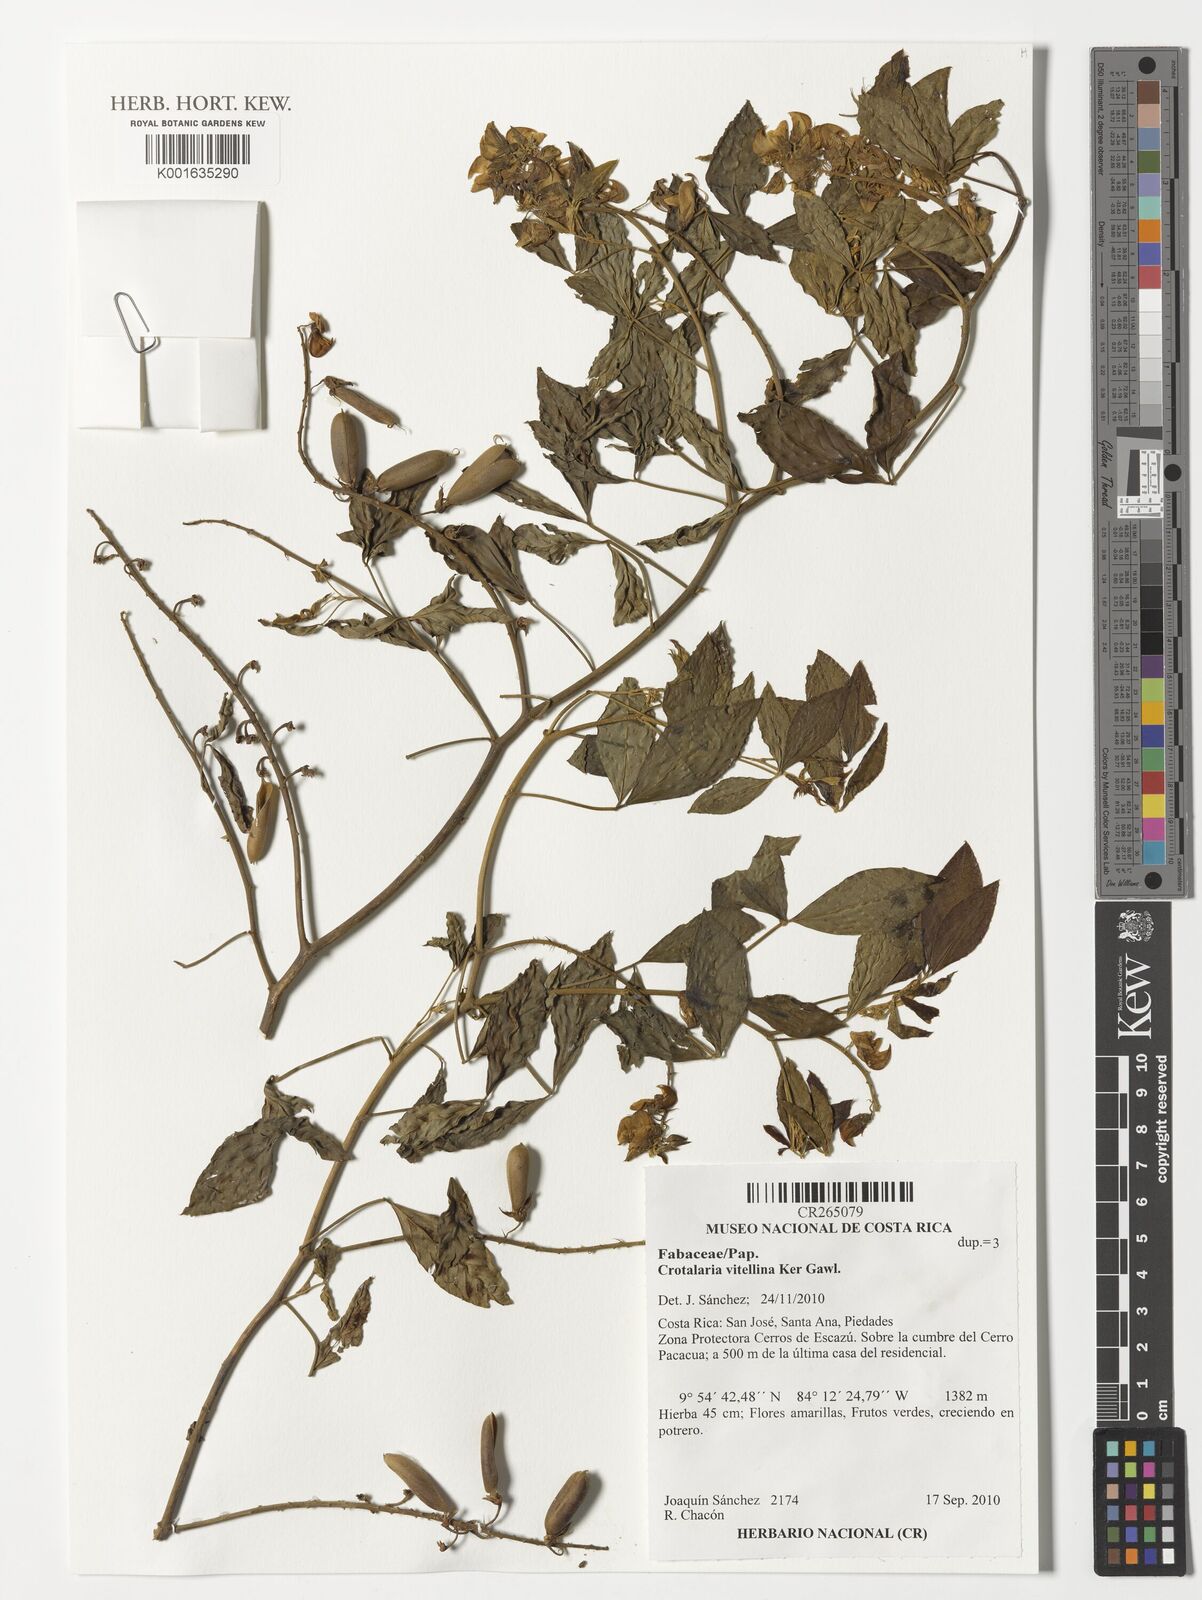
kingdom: Plantae
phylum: Tracheophyta
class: Magnoliopsida
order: Fabales
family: Fabaceae
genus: Crotalaria
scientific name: Crotalaria vitellina
